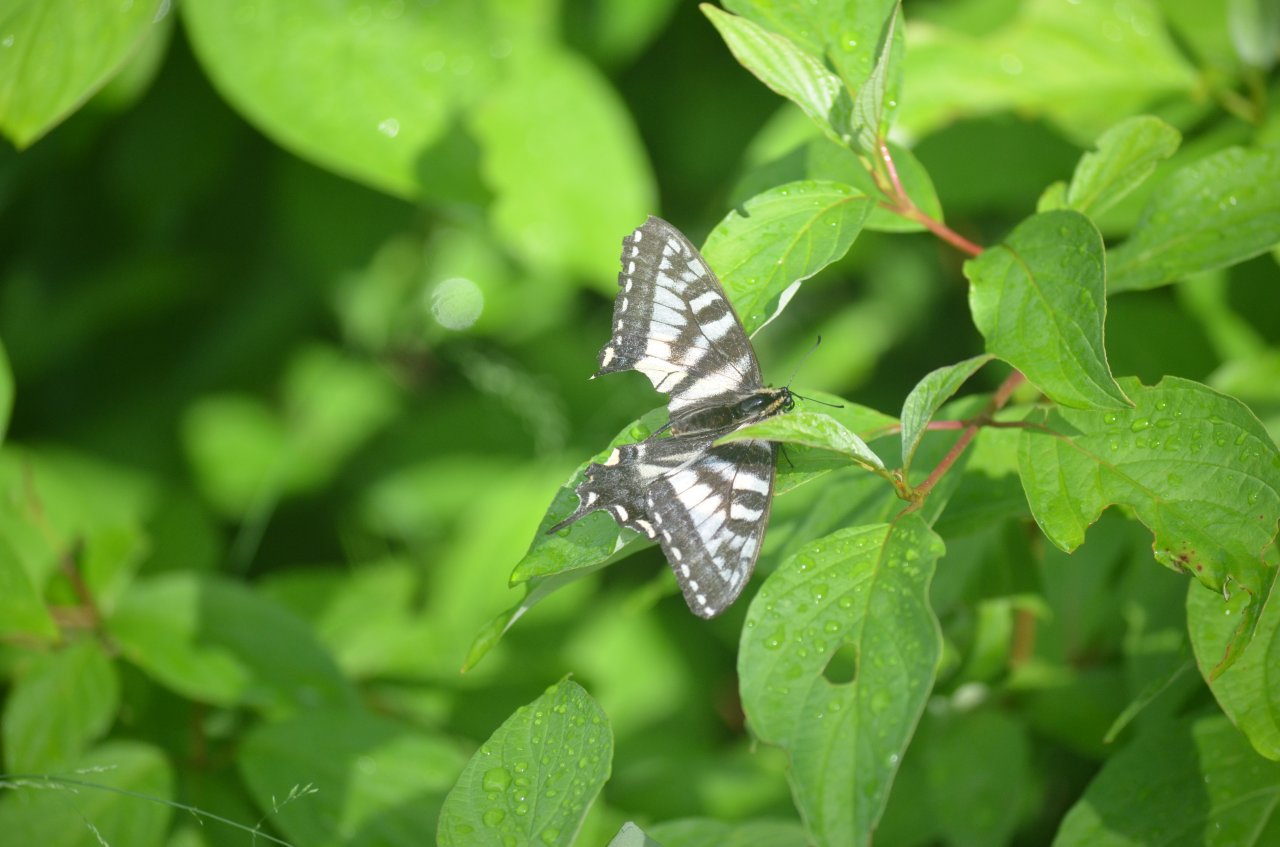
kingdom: Animalia
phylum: Arthropoda
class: Insecta
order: Lepidoptera
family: Papilionidae
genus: Pterourus
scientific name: Pterourus canadensis
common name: Canadian Tiger Swallowtail
